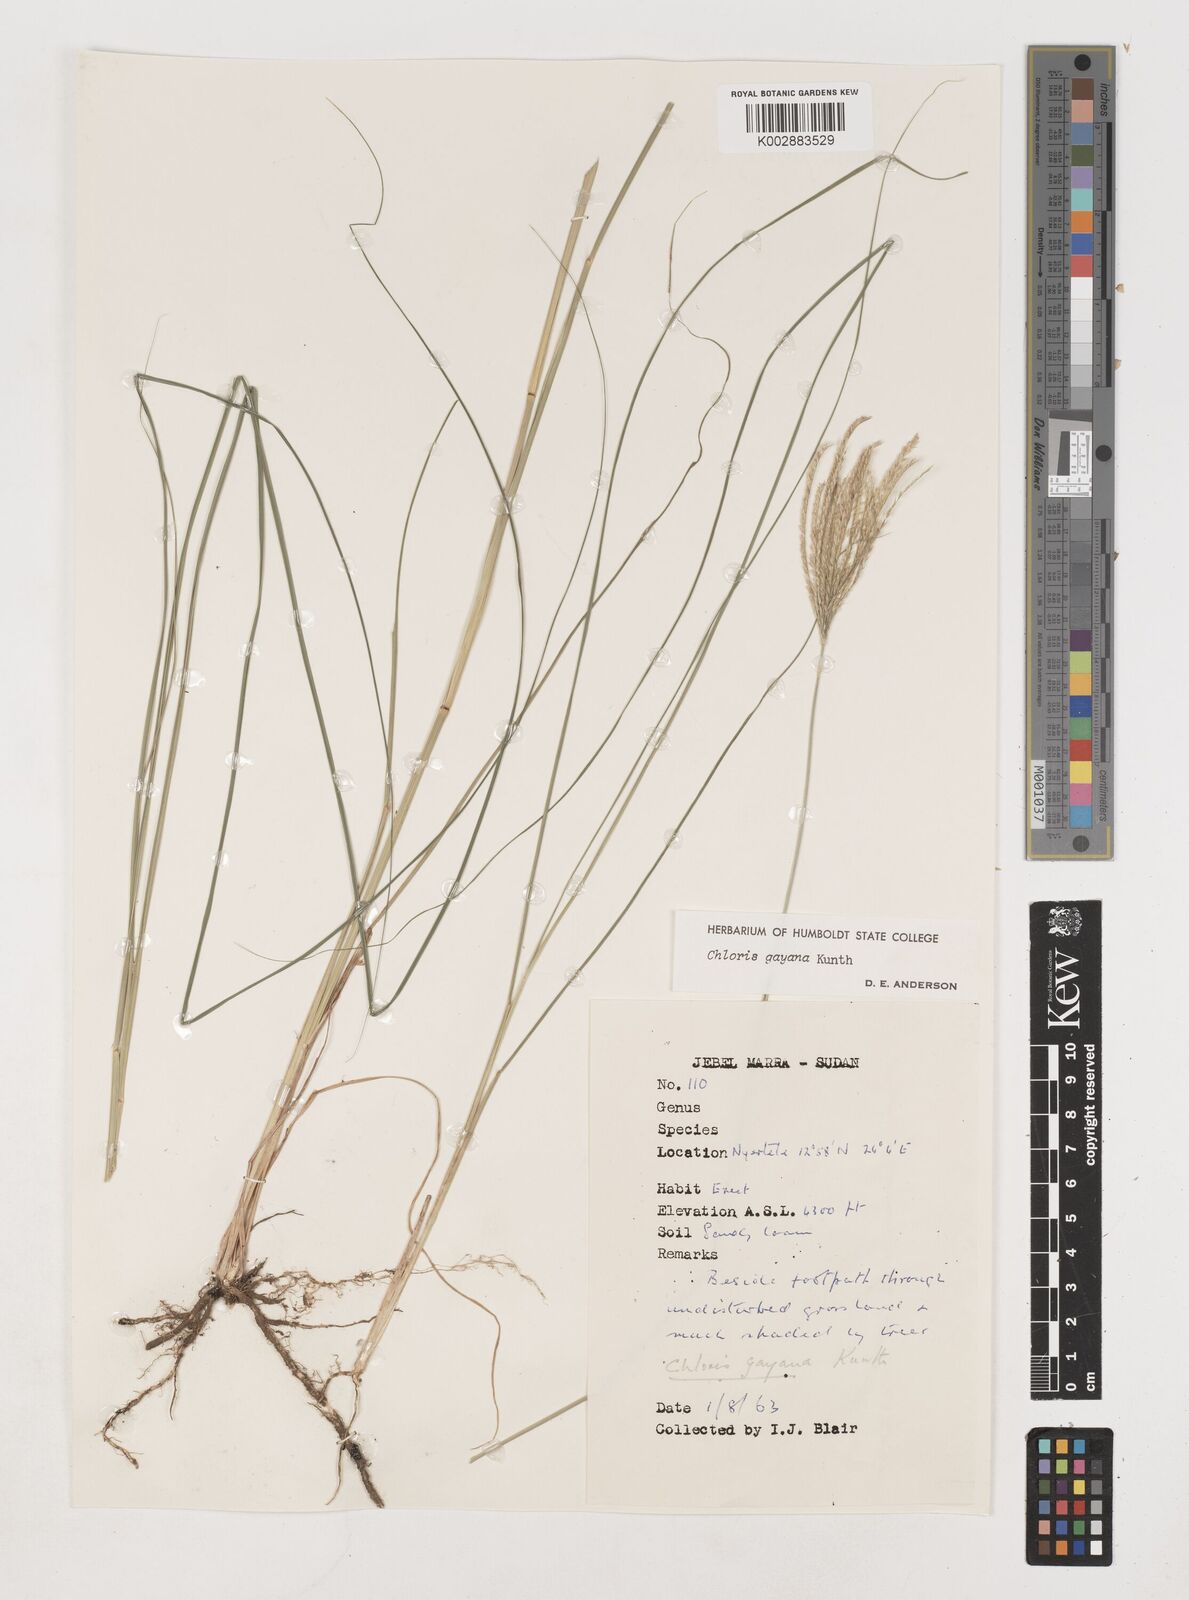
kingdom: Plantae
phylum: Tracheophyta
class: Liliopsida
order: Poales
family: Poaceae
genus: Chloris
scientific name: Chloris gayana
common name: Rhodes grass
